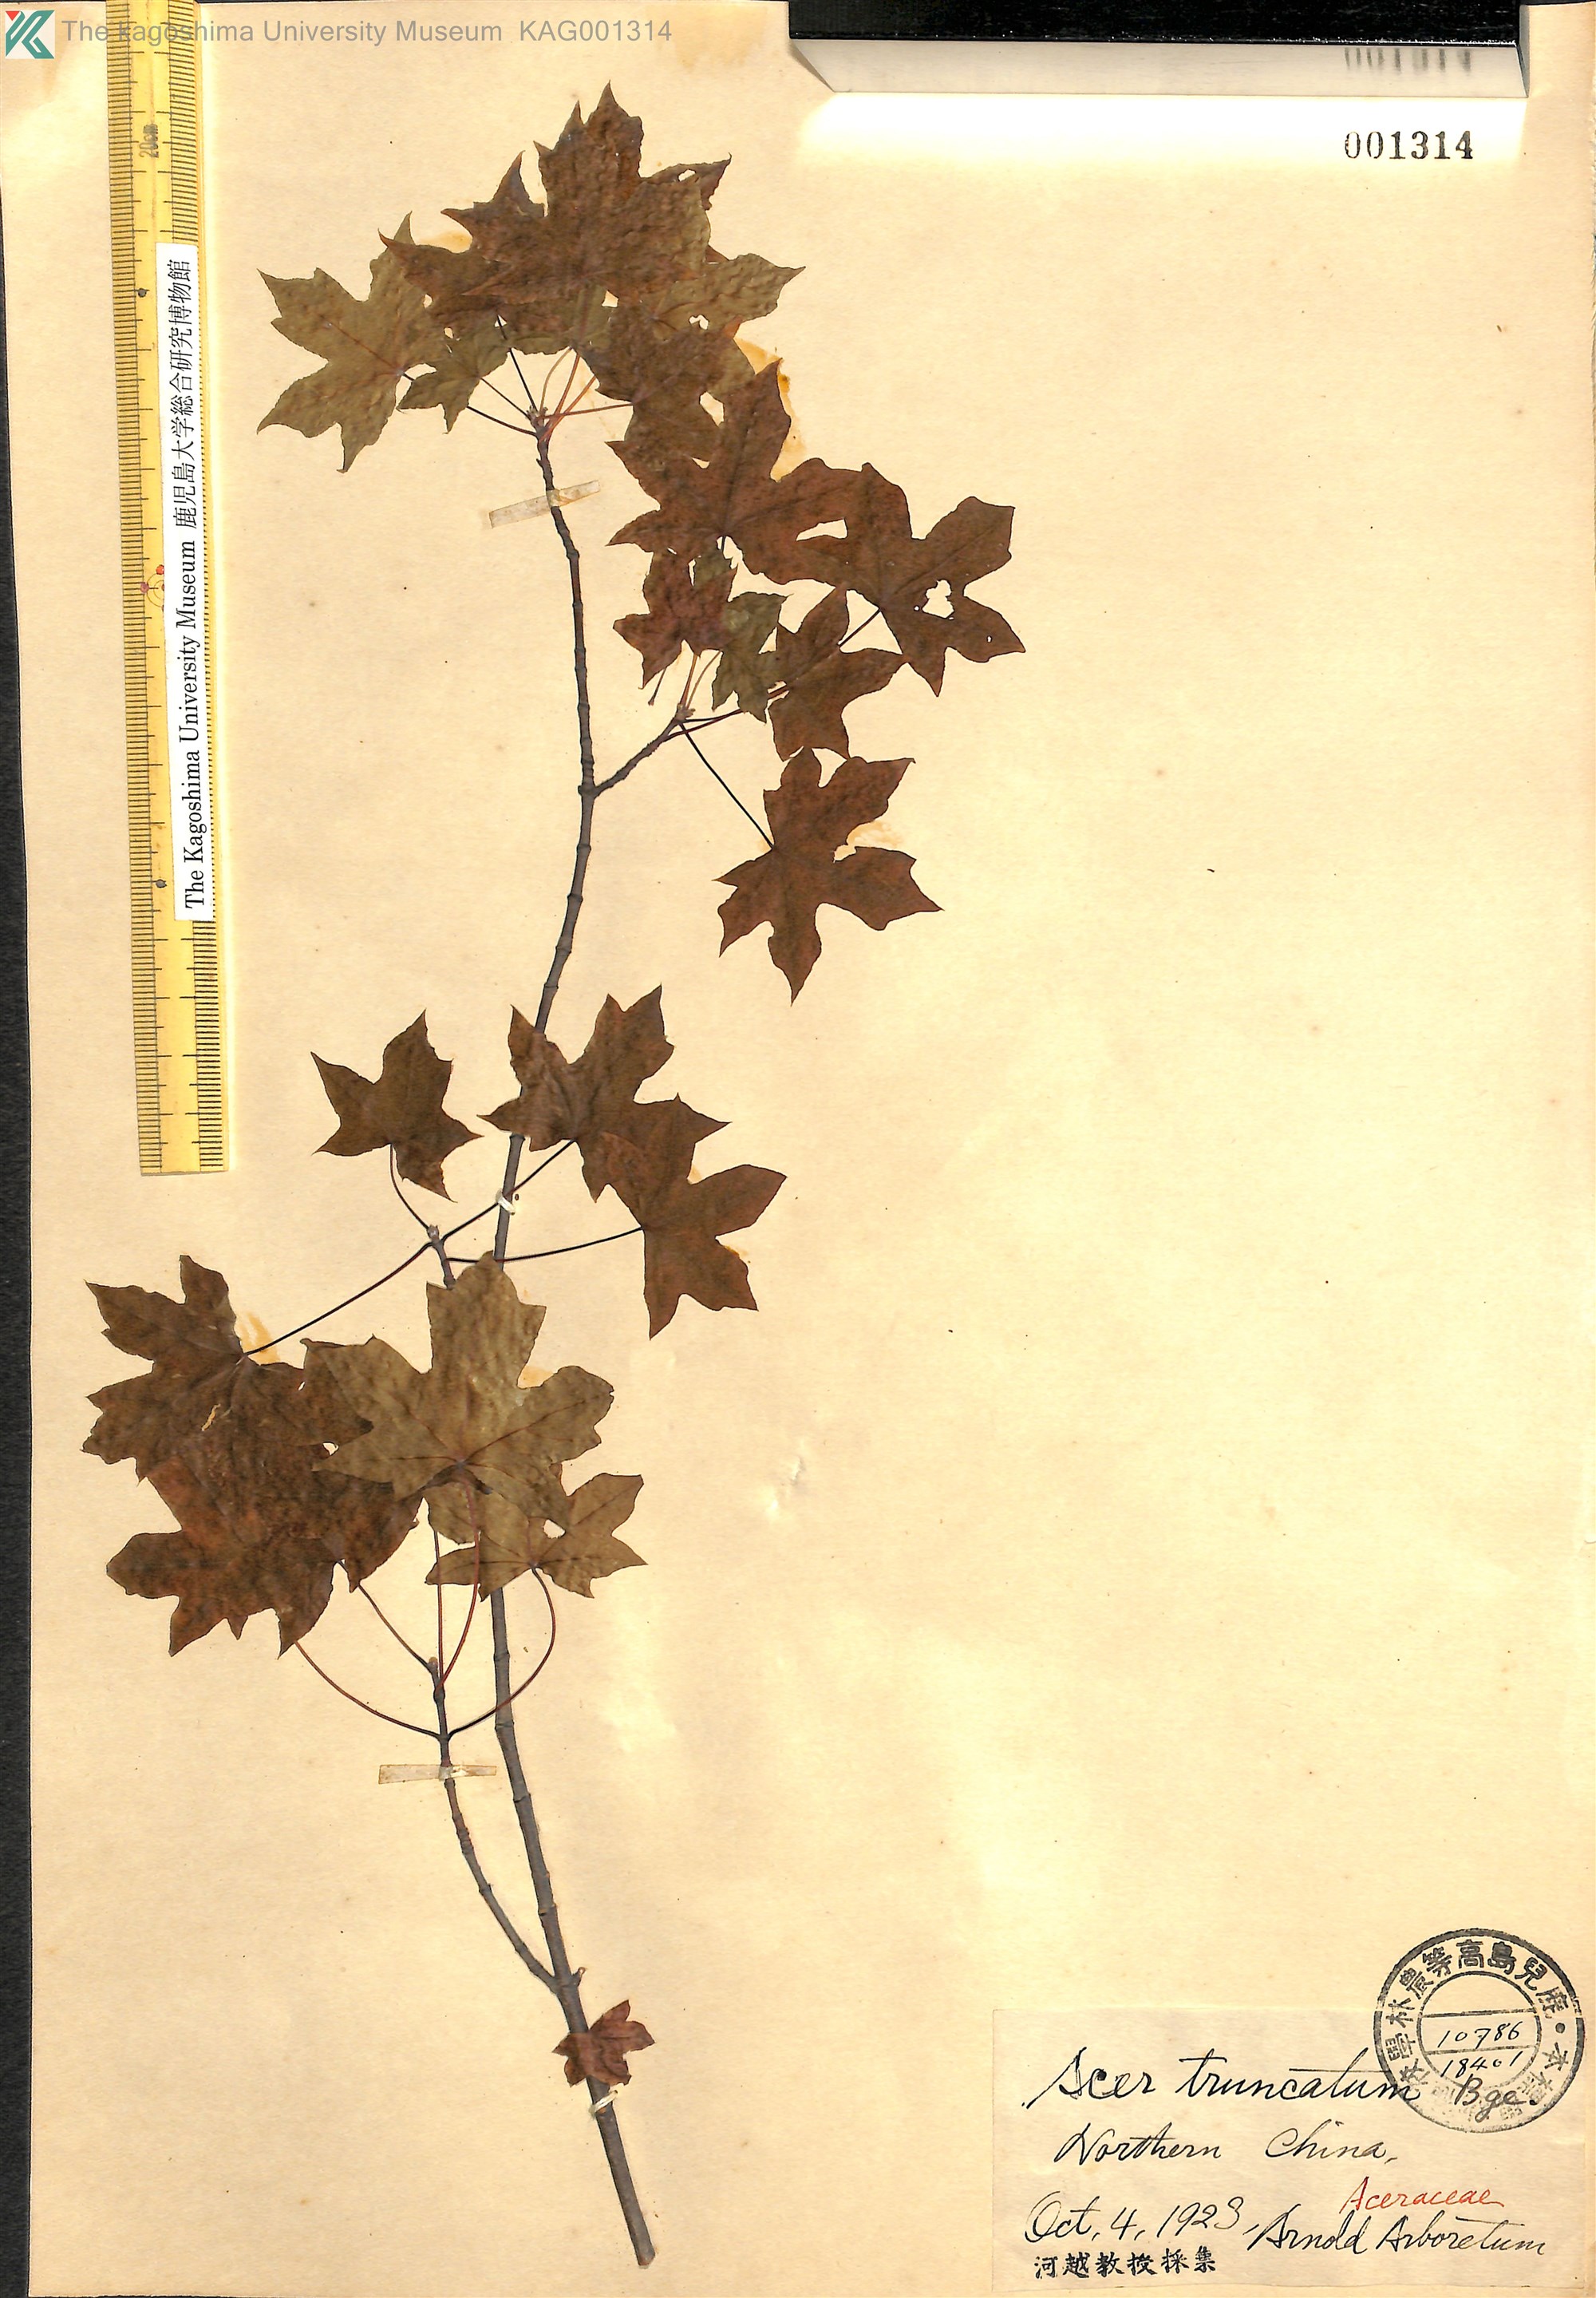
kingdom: Plantae
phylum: Tracheophyta
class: Magnoliopsida
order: Sapindales
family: Sapindaceae
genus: Acer
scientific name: Acer truncatum
